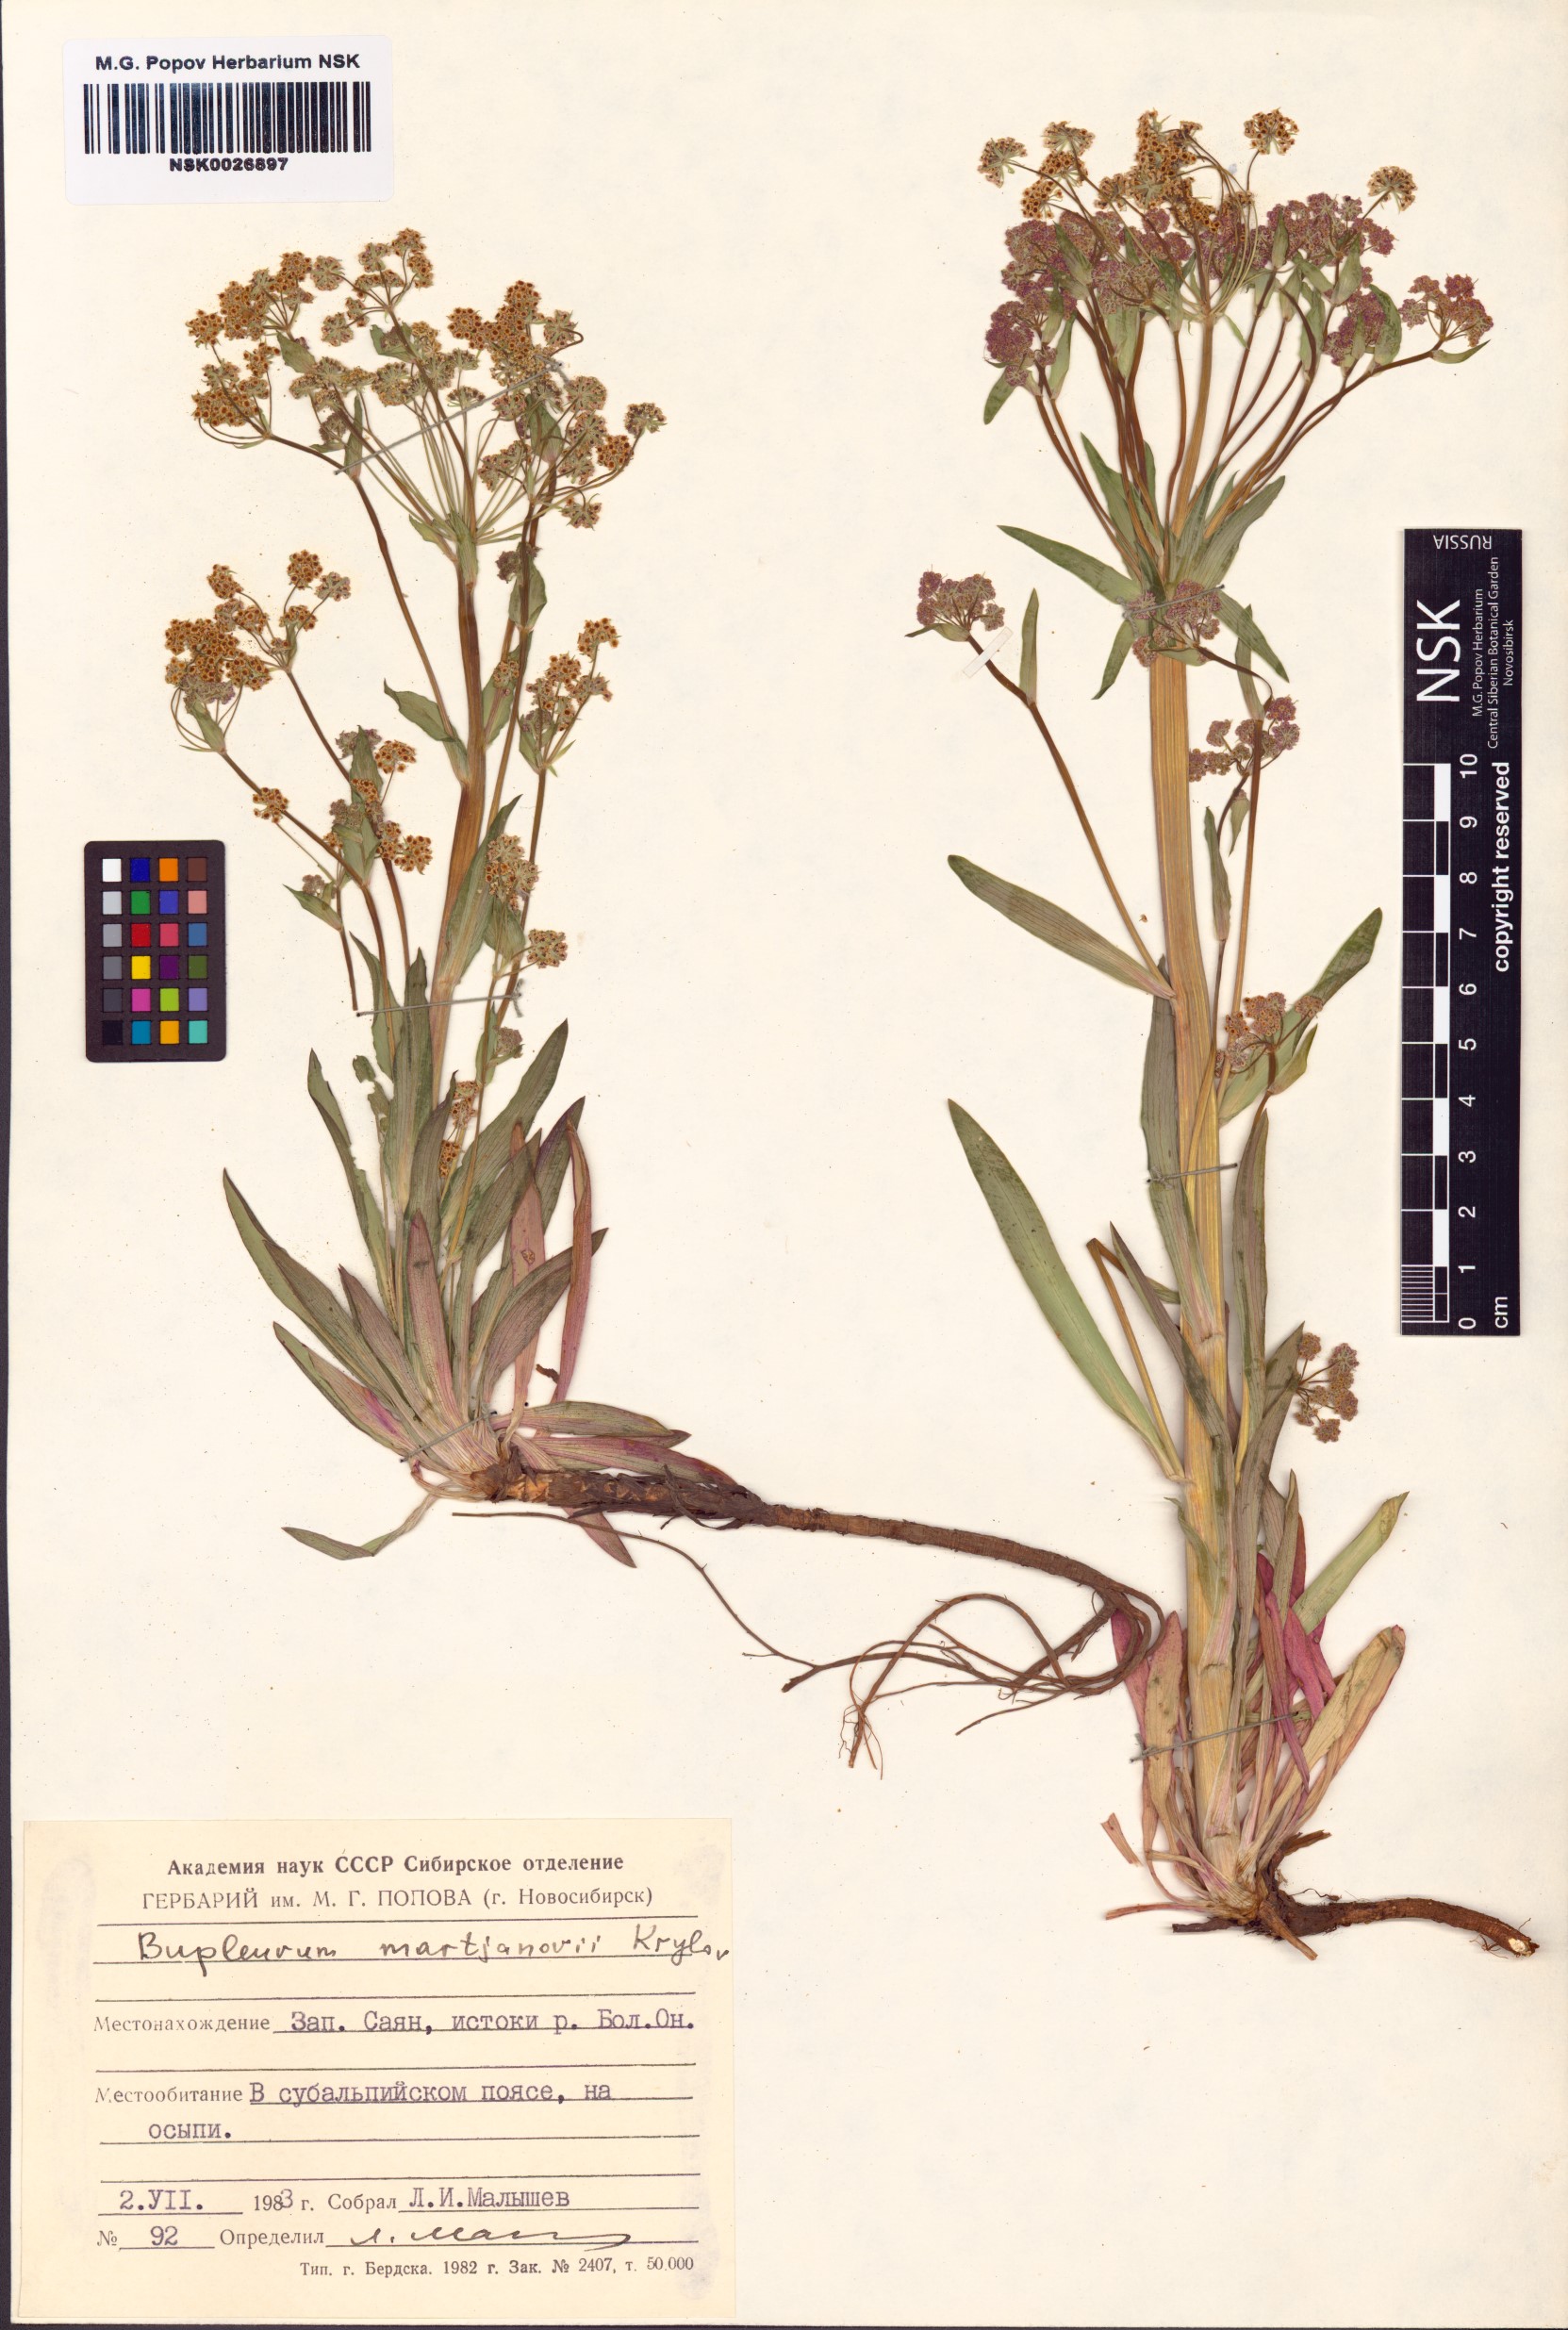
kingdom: Plantae
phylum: Tracheophyta
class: Magnoliopsida
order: Apiales
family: Apiaceae
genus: Bupleurum
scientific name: Bupleurum martjanovii
